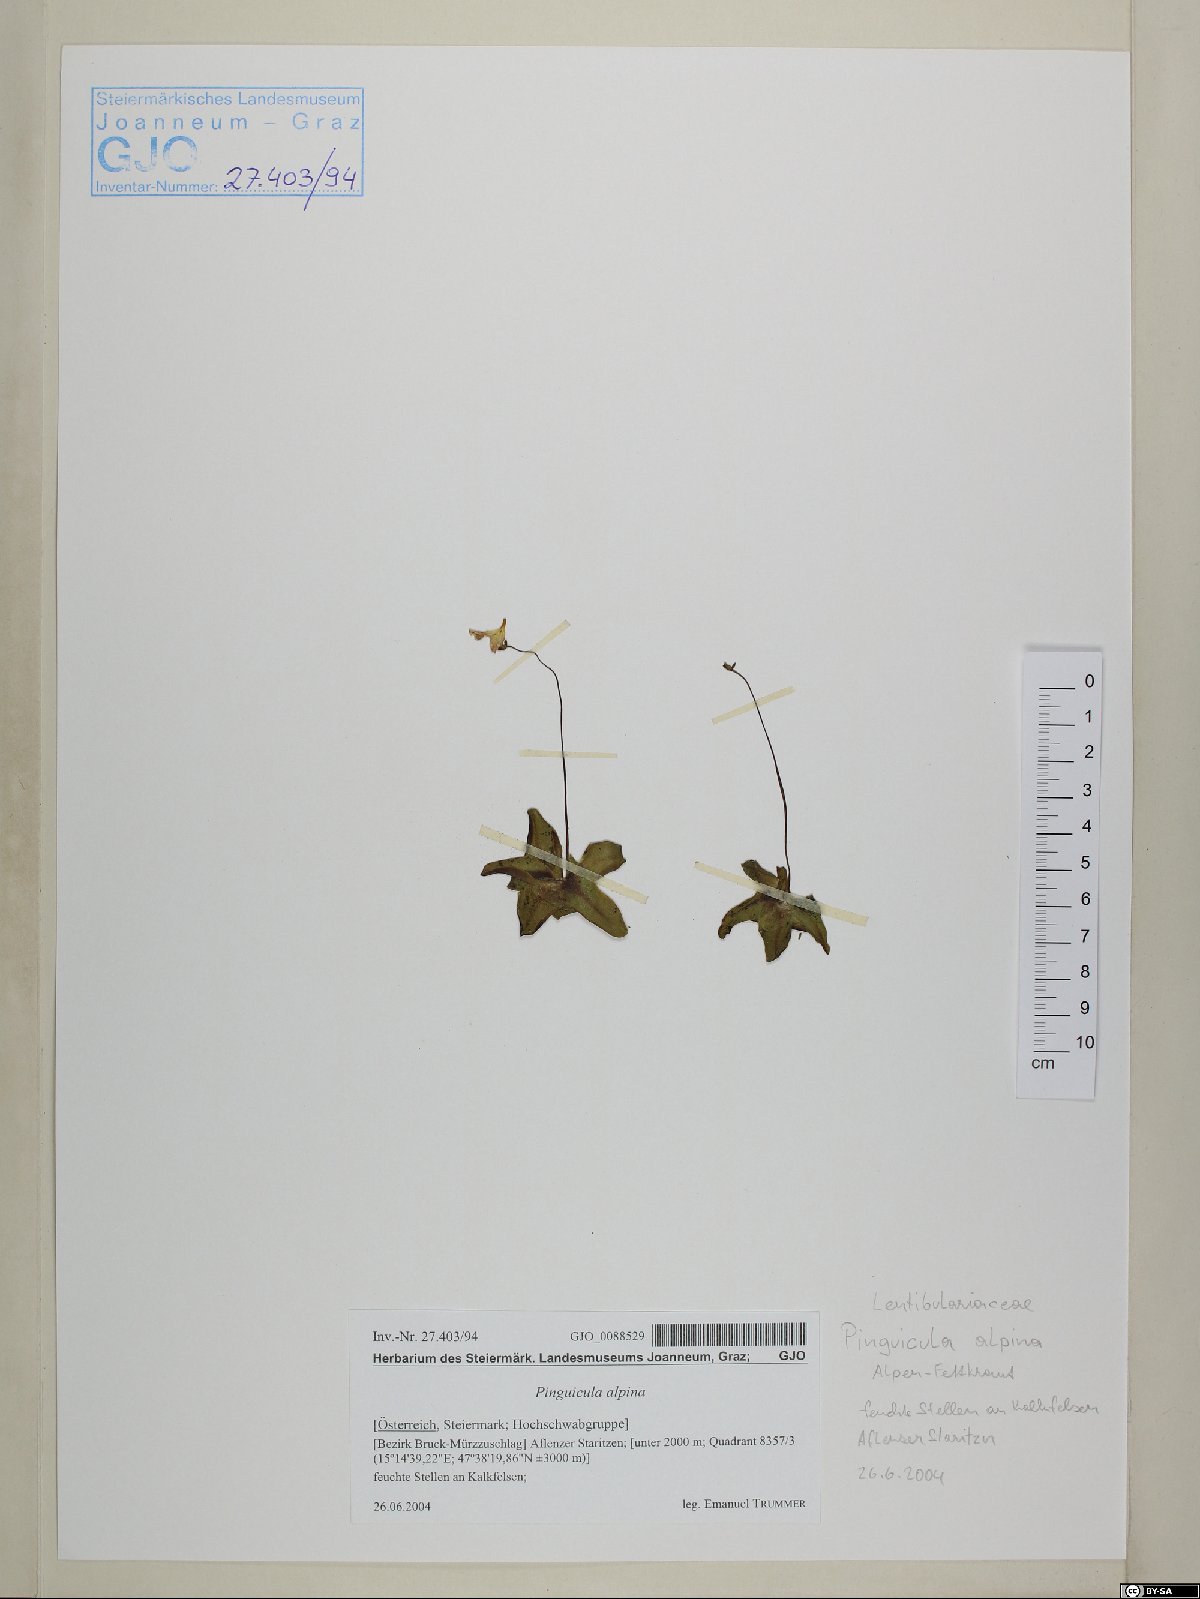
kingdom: Plantae
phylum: Tracheophyta
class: Magnoliopsida
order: Lamiales
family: Lentibulariaceae
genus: Pinguicula
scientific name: Pinguicula alpina
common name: Alpine butterwort
